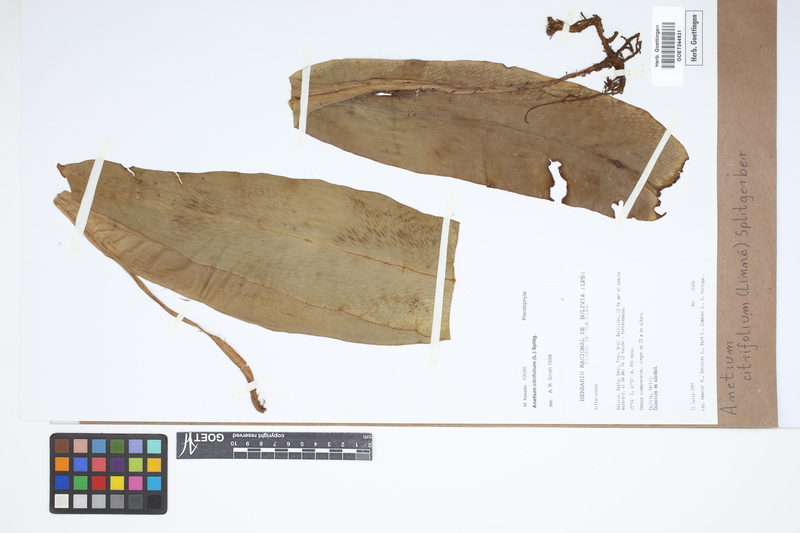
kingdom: Plantae
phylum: Tracheophyta
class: Polypodiopsida
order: Polypodiales
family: Pteridaceae
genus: Polytaenium
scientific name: Polytaenium citrifolium
